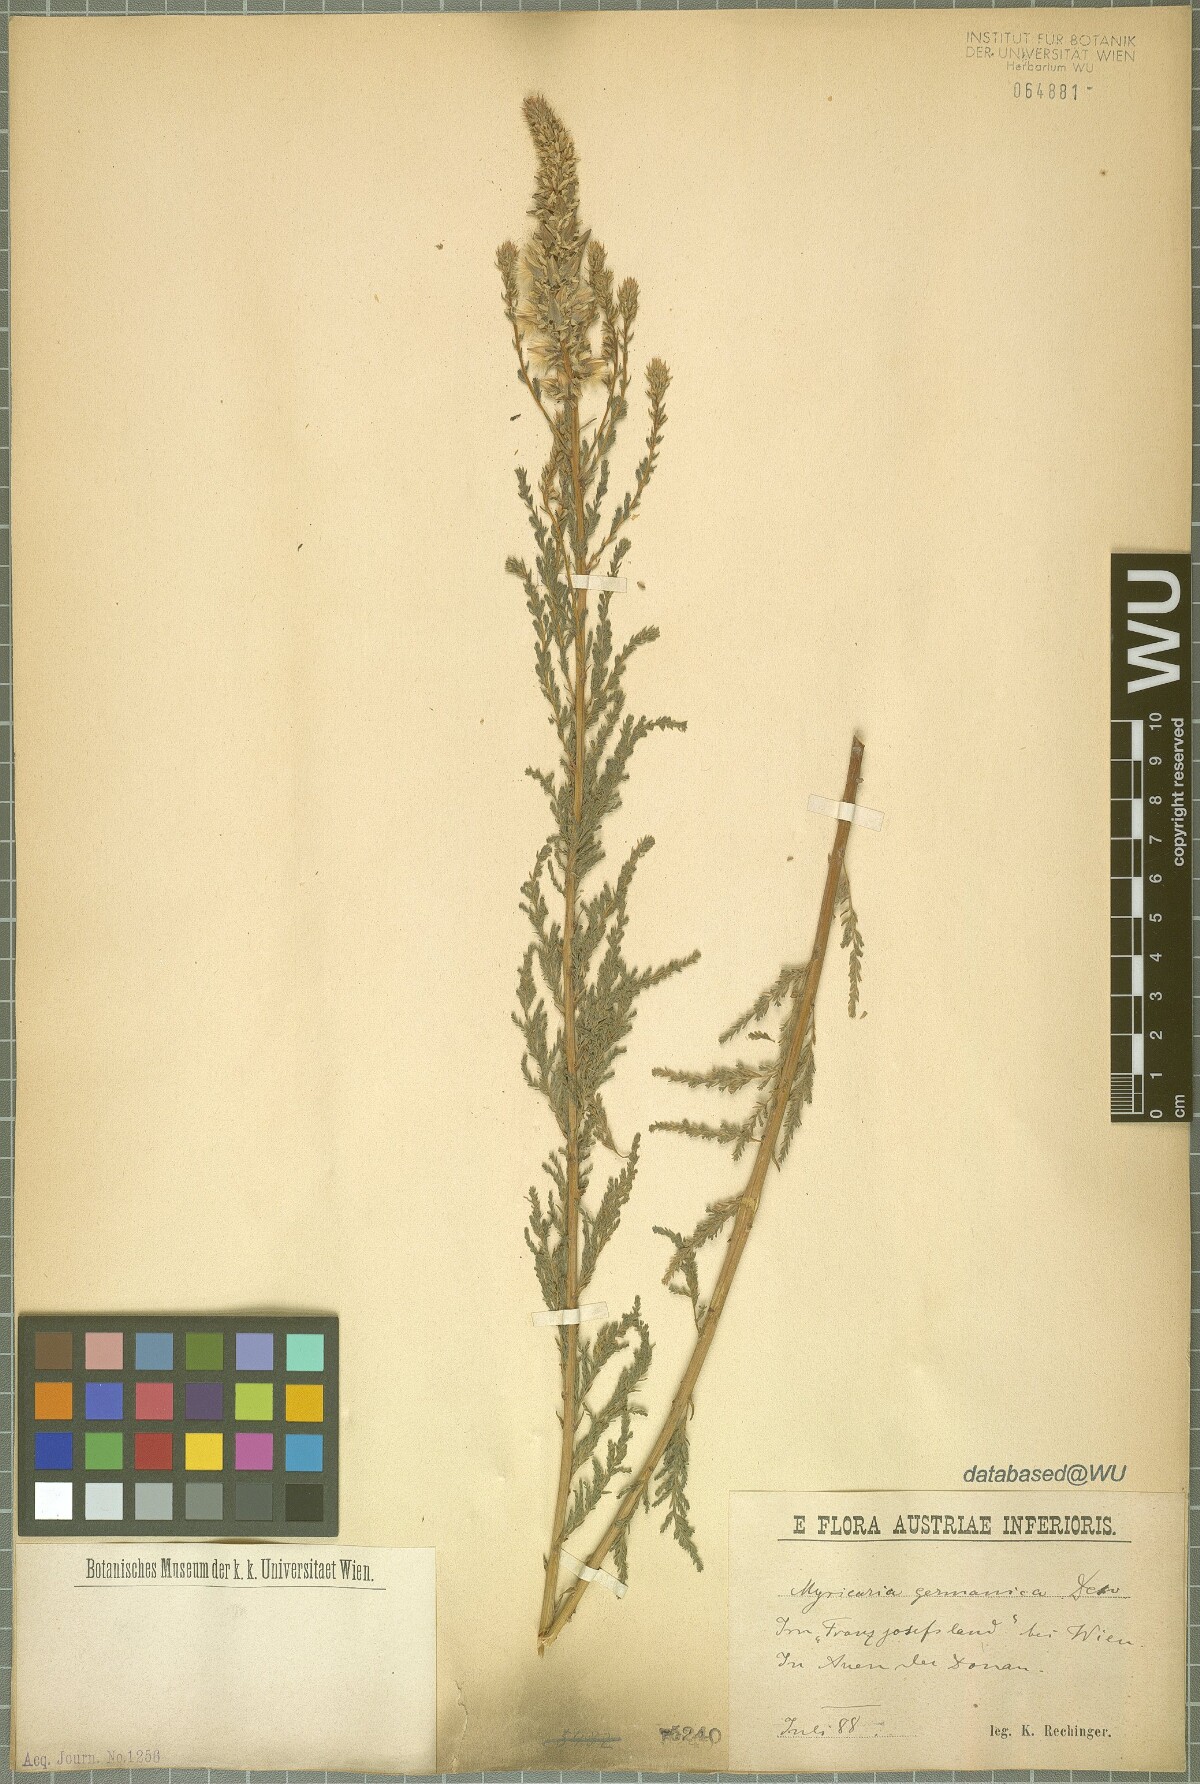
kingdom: Plantae
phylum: Tracheophyta
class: Magnoliopsida
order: Caryophyllales
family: Tamaricaceae
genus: Myricaria
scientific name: Myricaria germanica
